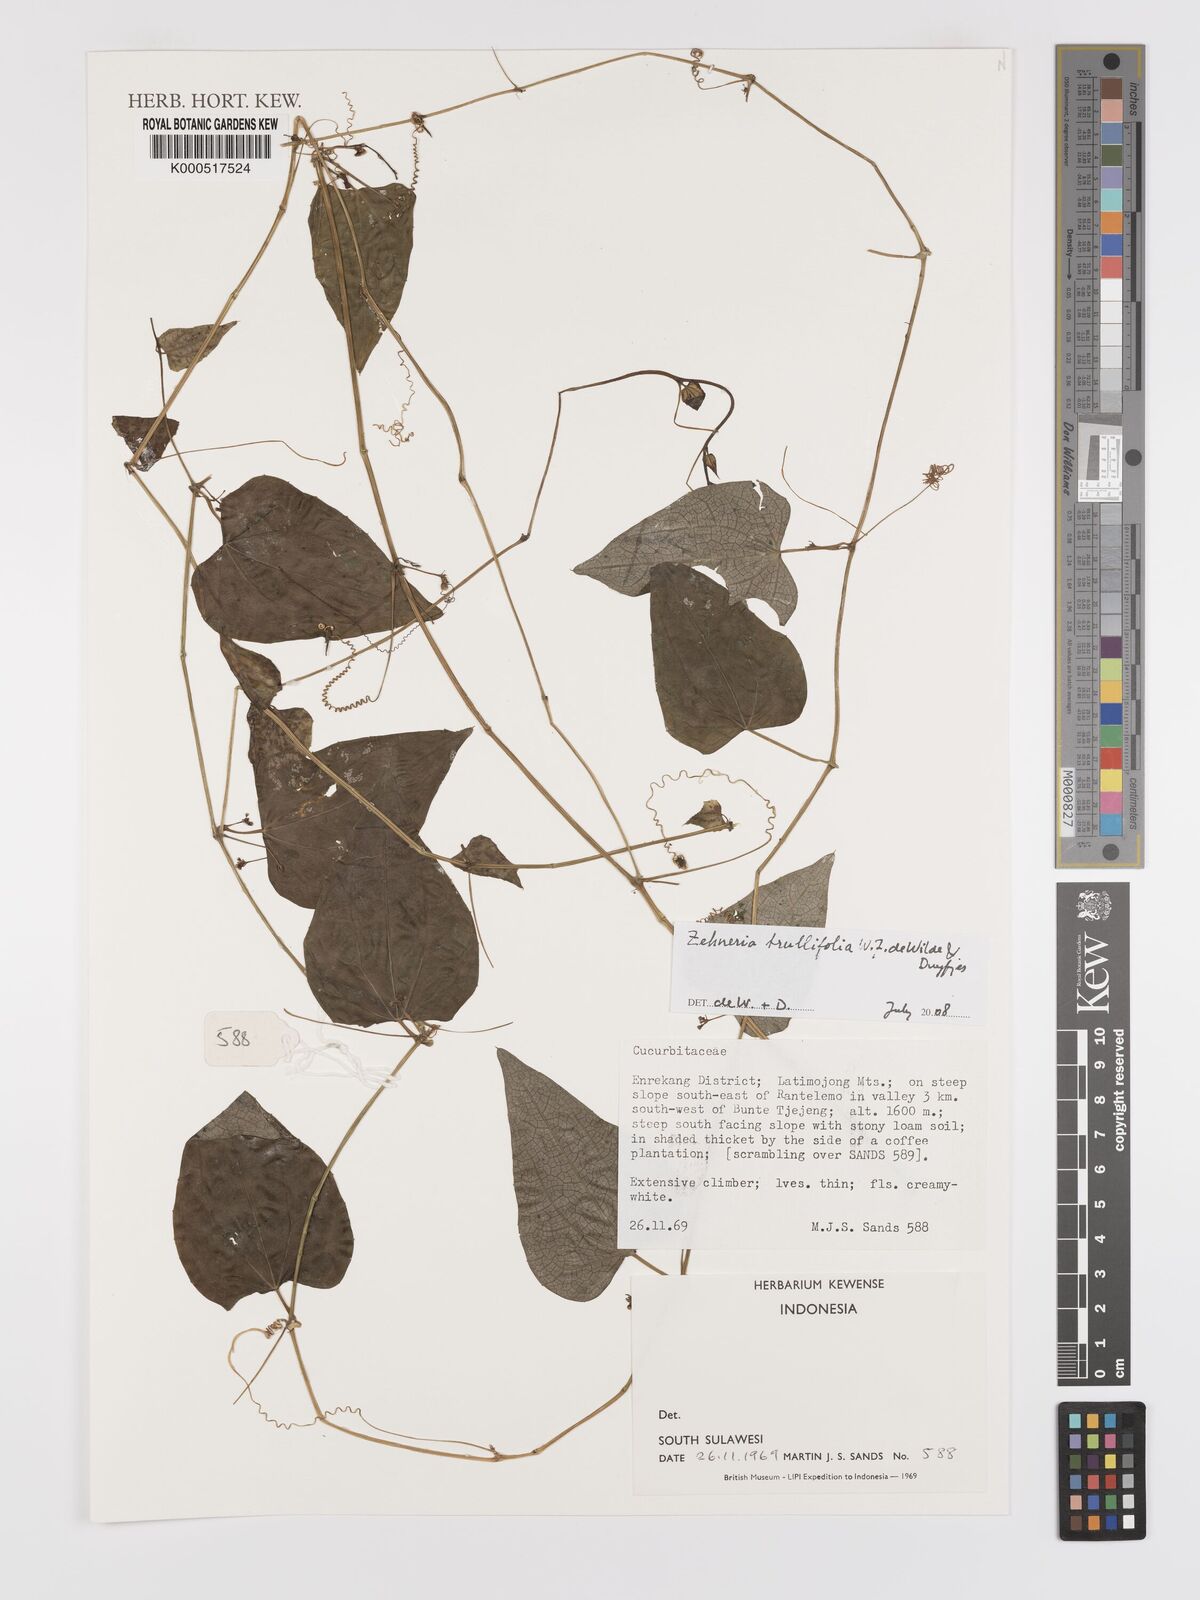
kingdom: Plantae
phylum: Tracheophyta
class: Magnoliopsida
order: Cucurbitales
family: Cucurbitaceae
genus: Zehneria
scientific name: Zehneria trullifolia
